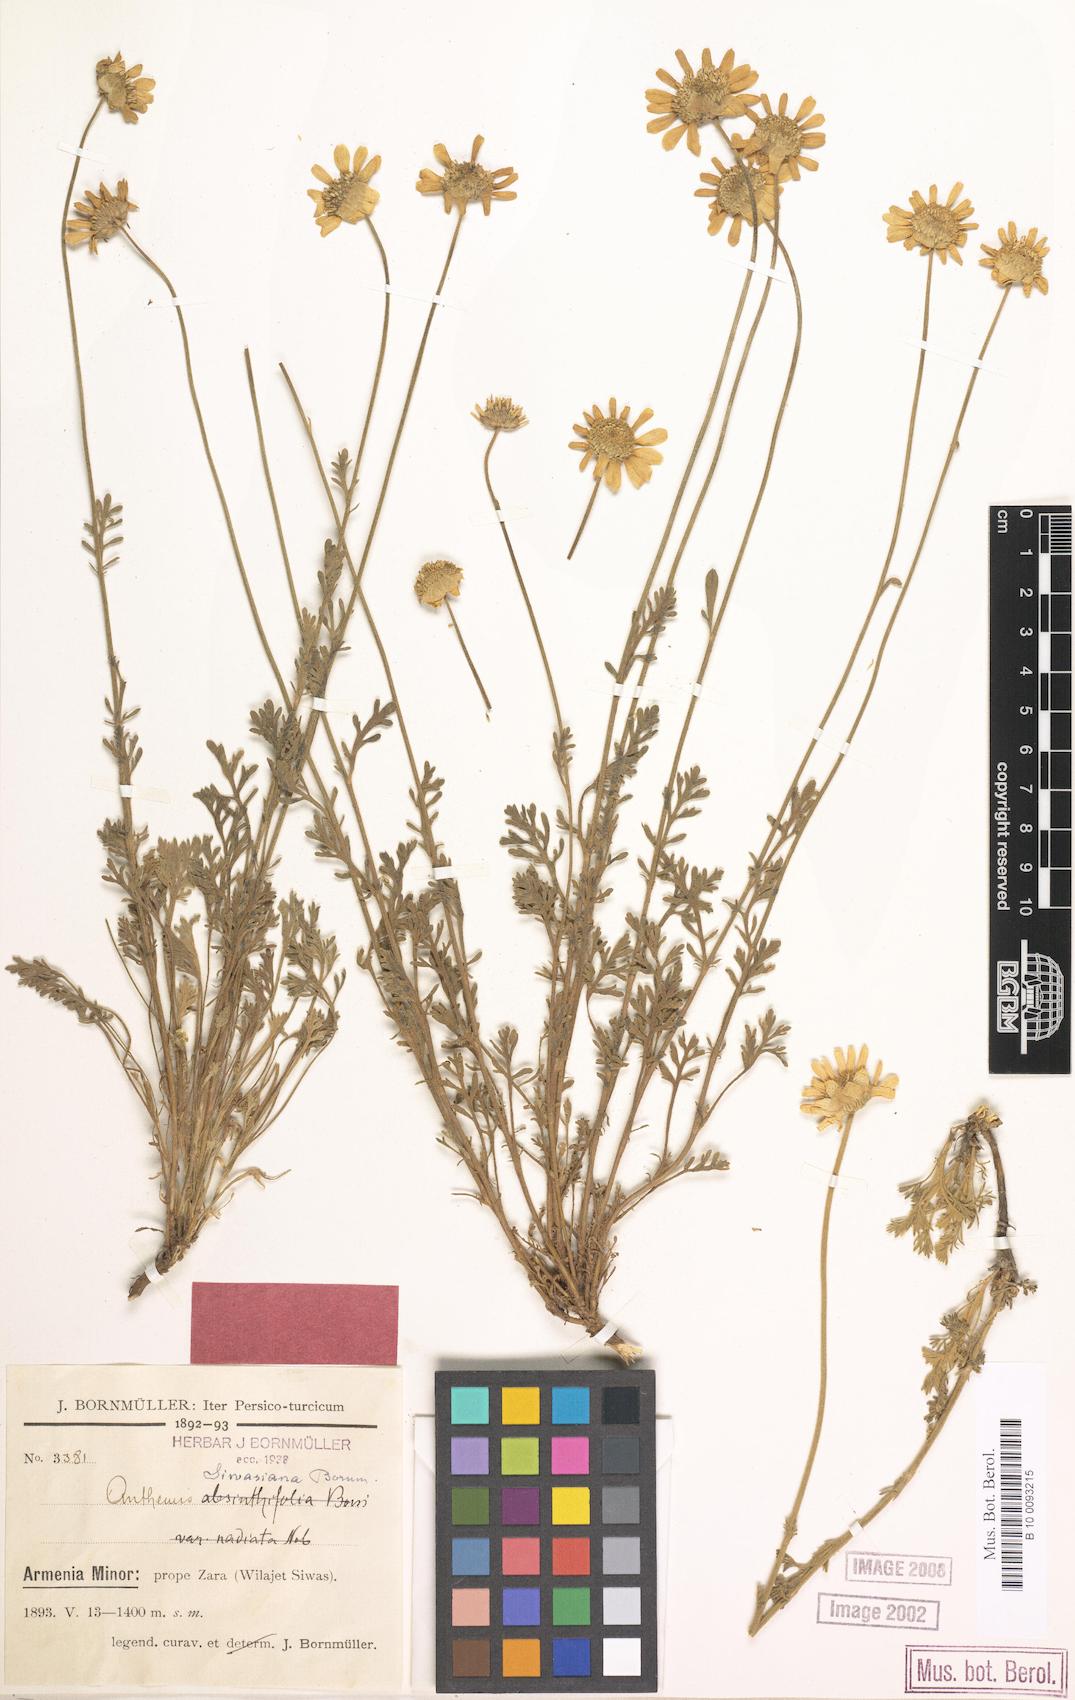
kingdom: Plantae
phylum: Tracheophyta
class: Magnoliopsida
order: Asterales
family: Asteraceae
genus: Anthemis
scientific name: Anthemis cretica
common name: Mountain dog-daisy
